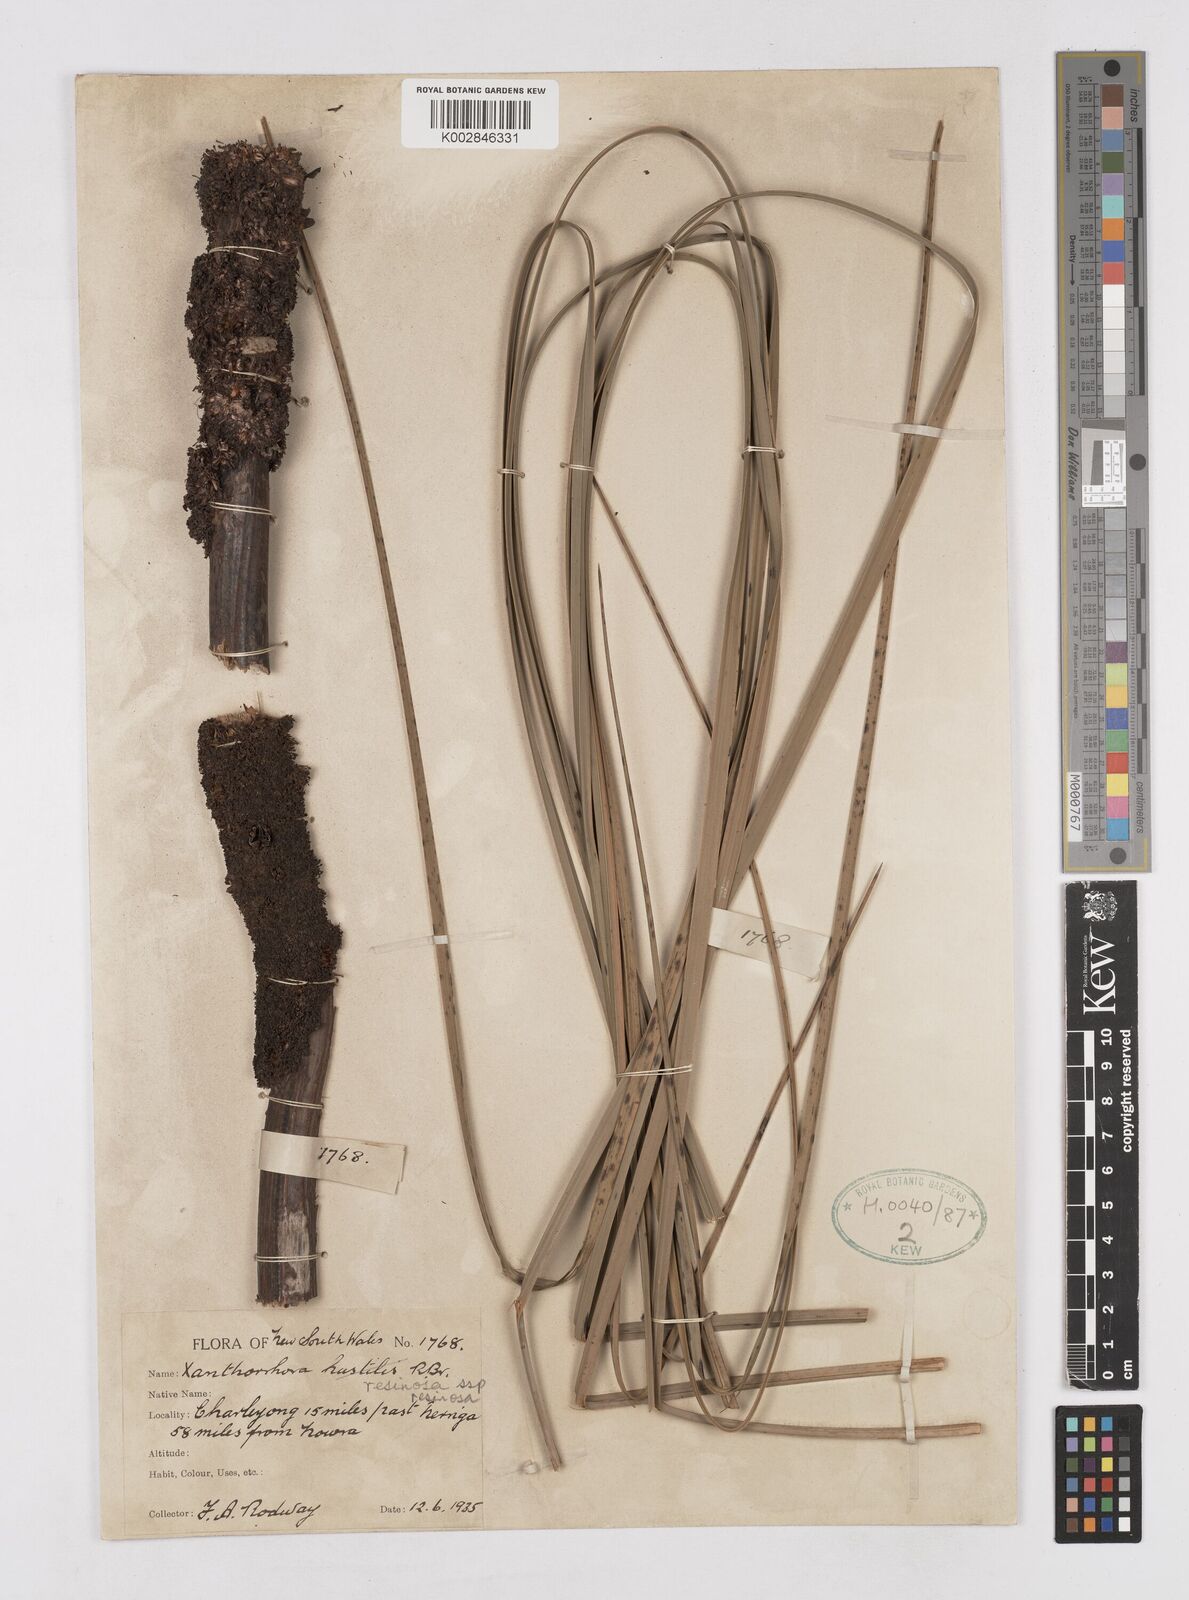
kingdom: Plantae
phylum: Tracheophyta
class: Liliopsida
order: Asparagales
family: Asphodelaceae
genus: Xanthorrhoea
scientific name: Xanthorrhoea
